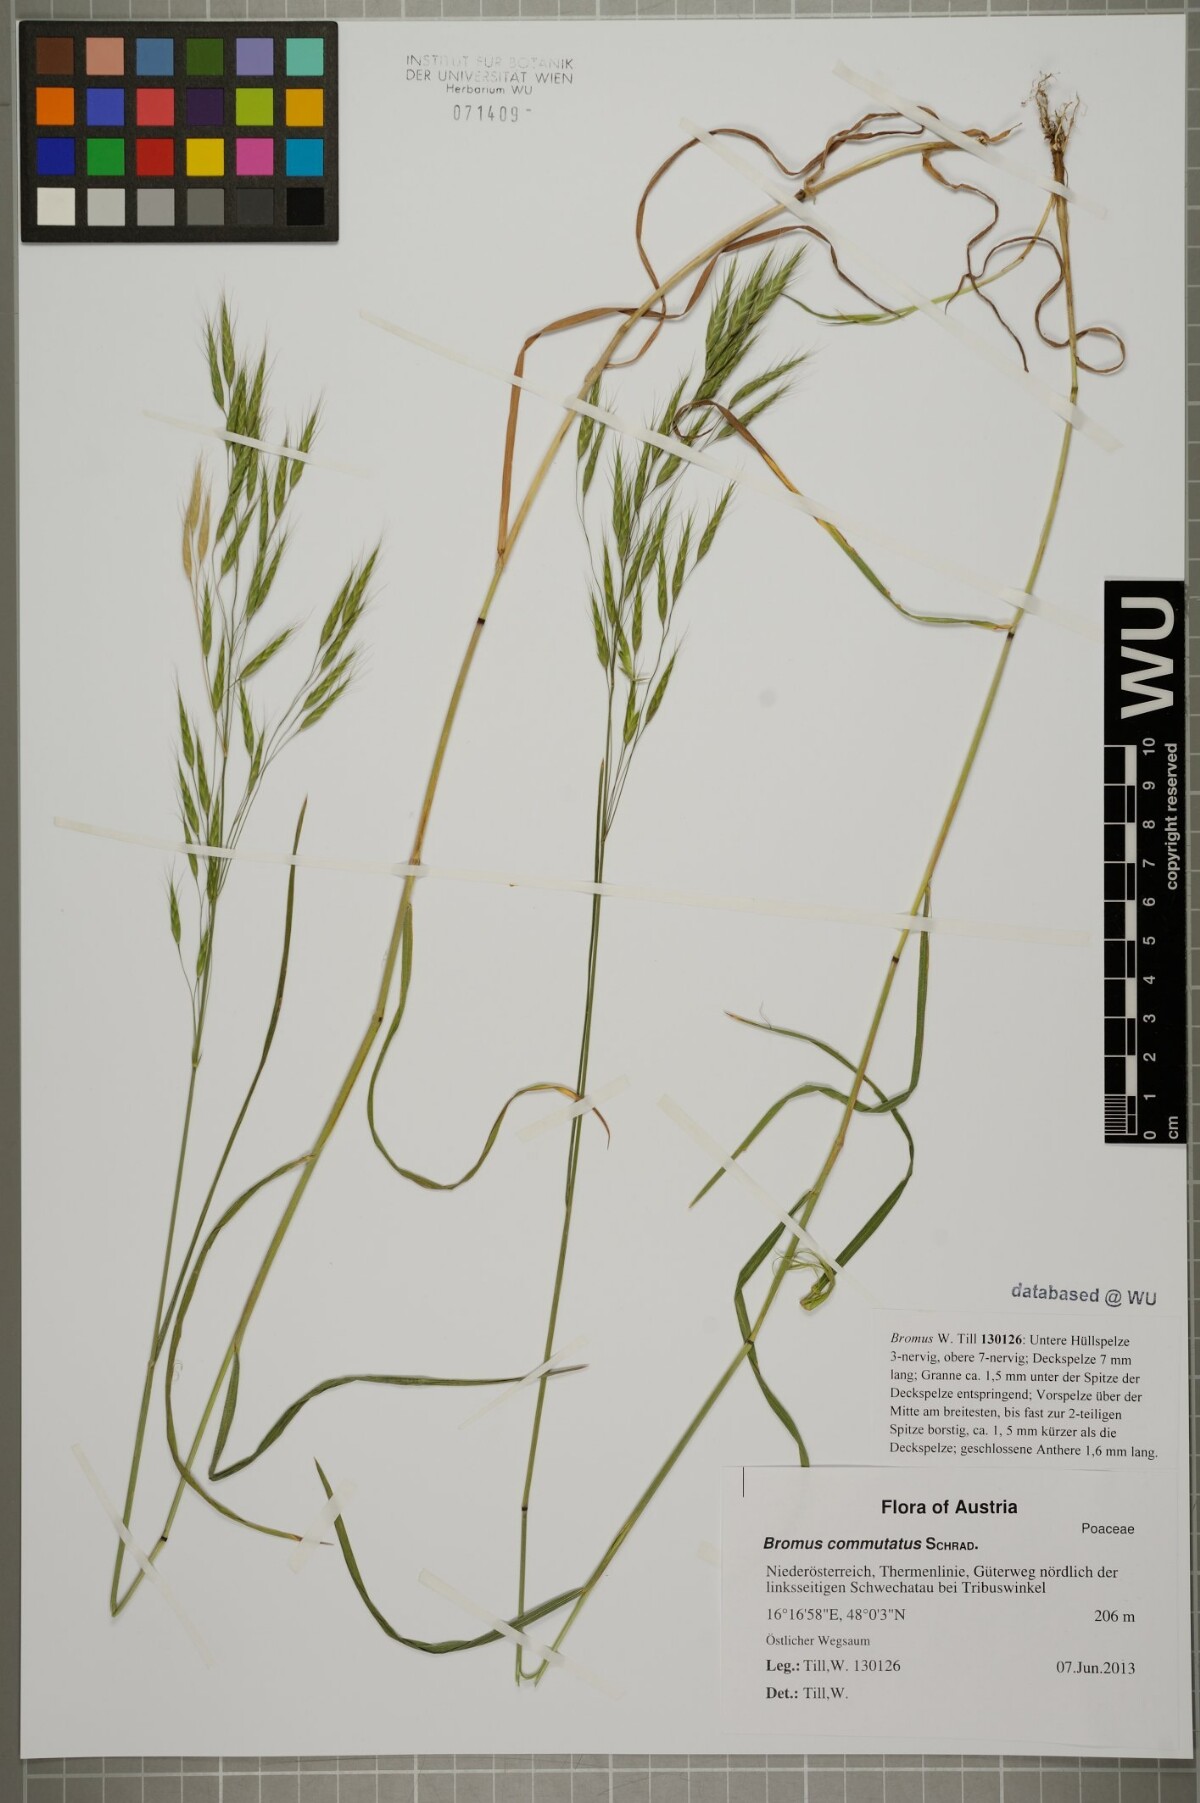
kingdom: Plantae
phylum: Tracheophyta
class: Liliopsida
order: Poales
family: Poaceae
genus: Bromus
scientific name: Bromus japonicus
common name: Japanese brome
